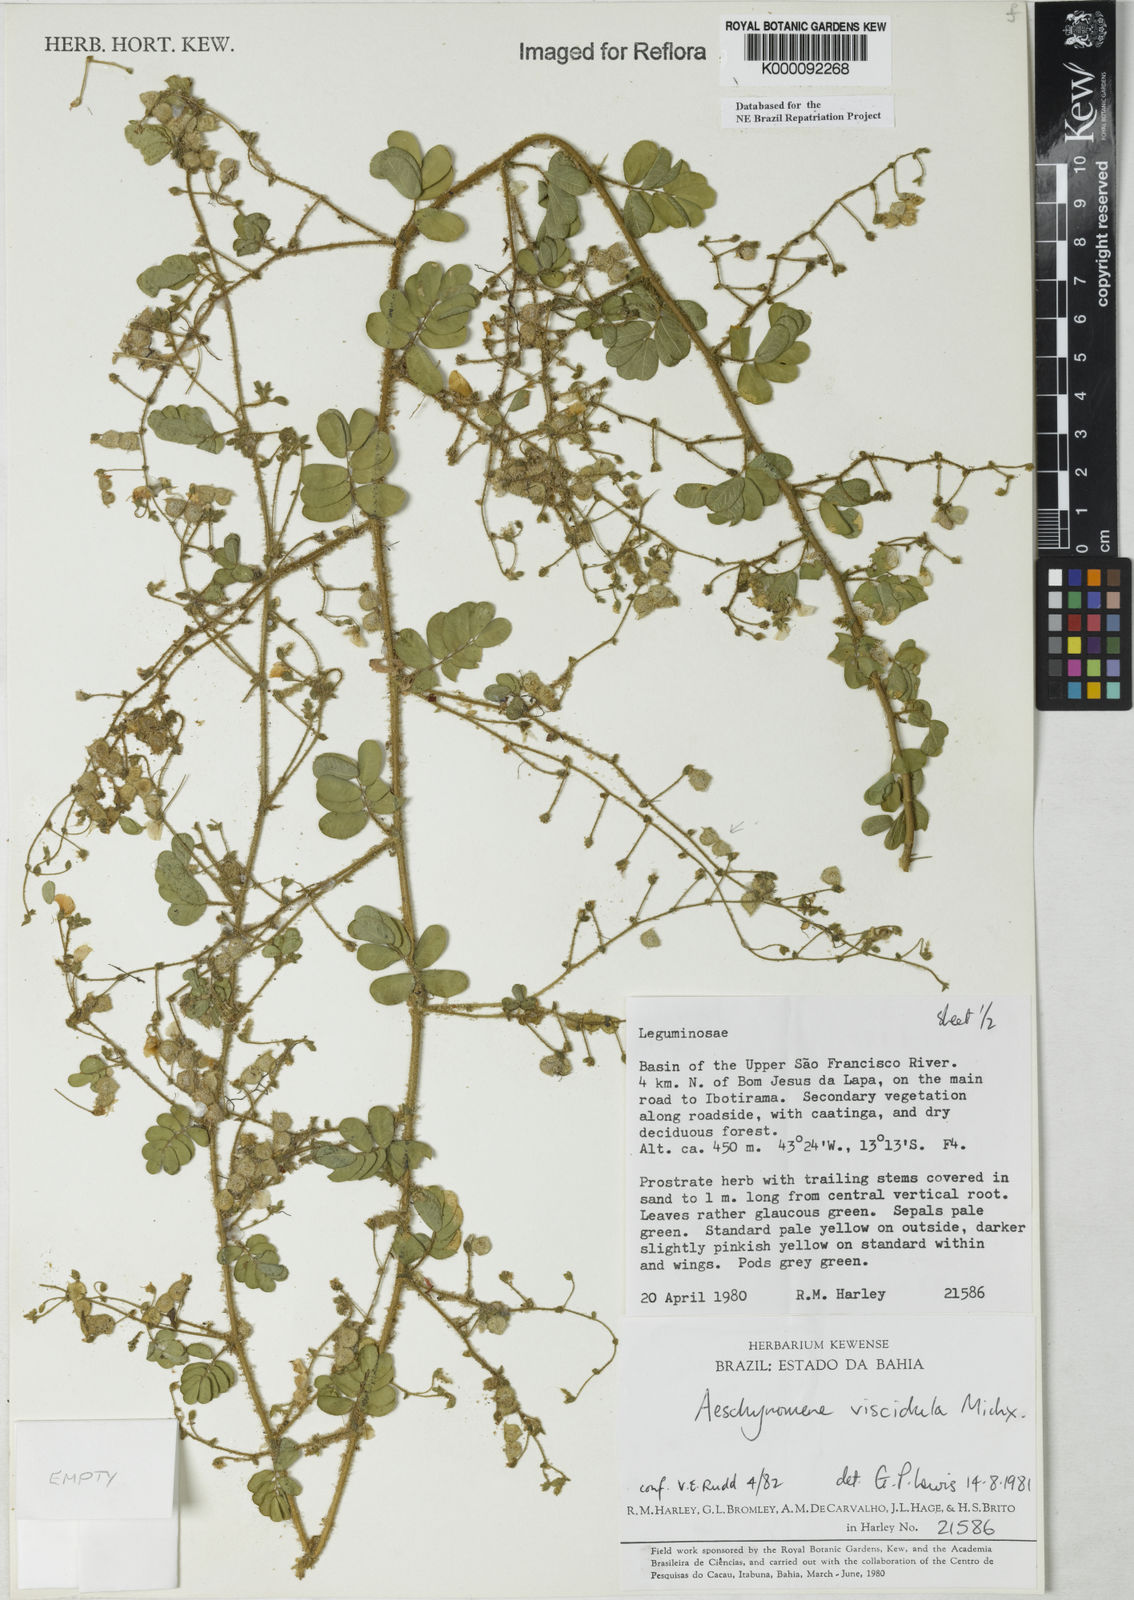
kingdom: Plantae
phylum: Tracheophyta
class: Magnoliopsida
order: Fabales
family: Fabaceae
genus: Ctenodon
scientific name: Ctenodon viscidulus
